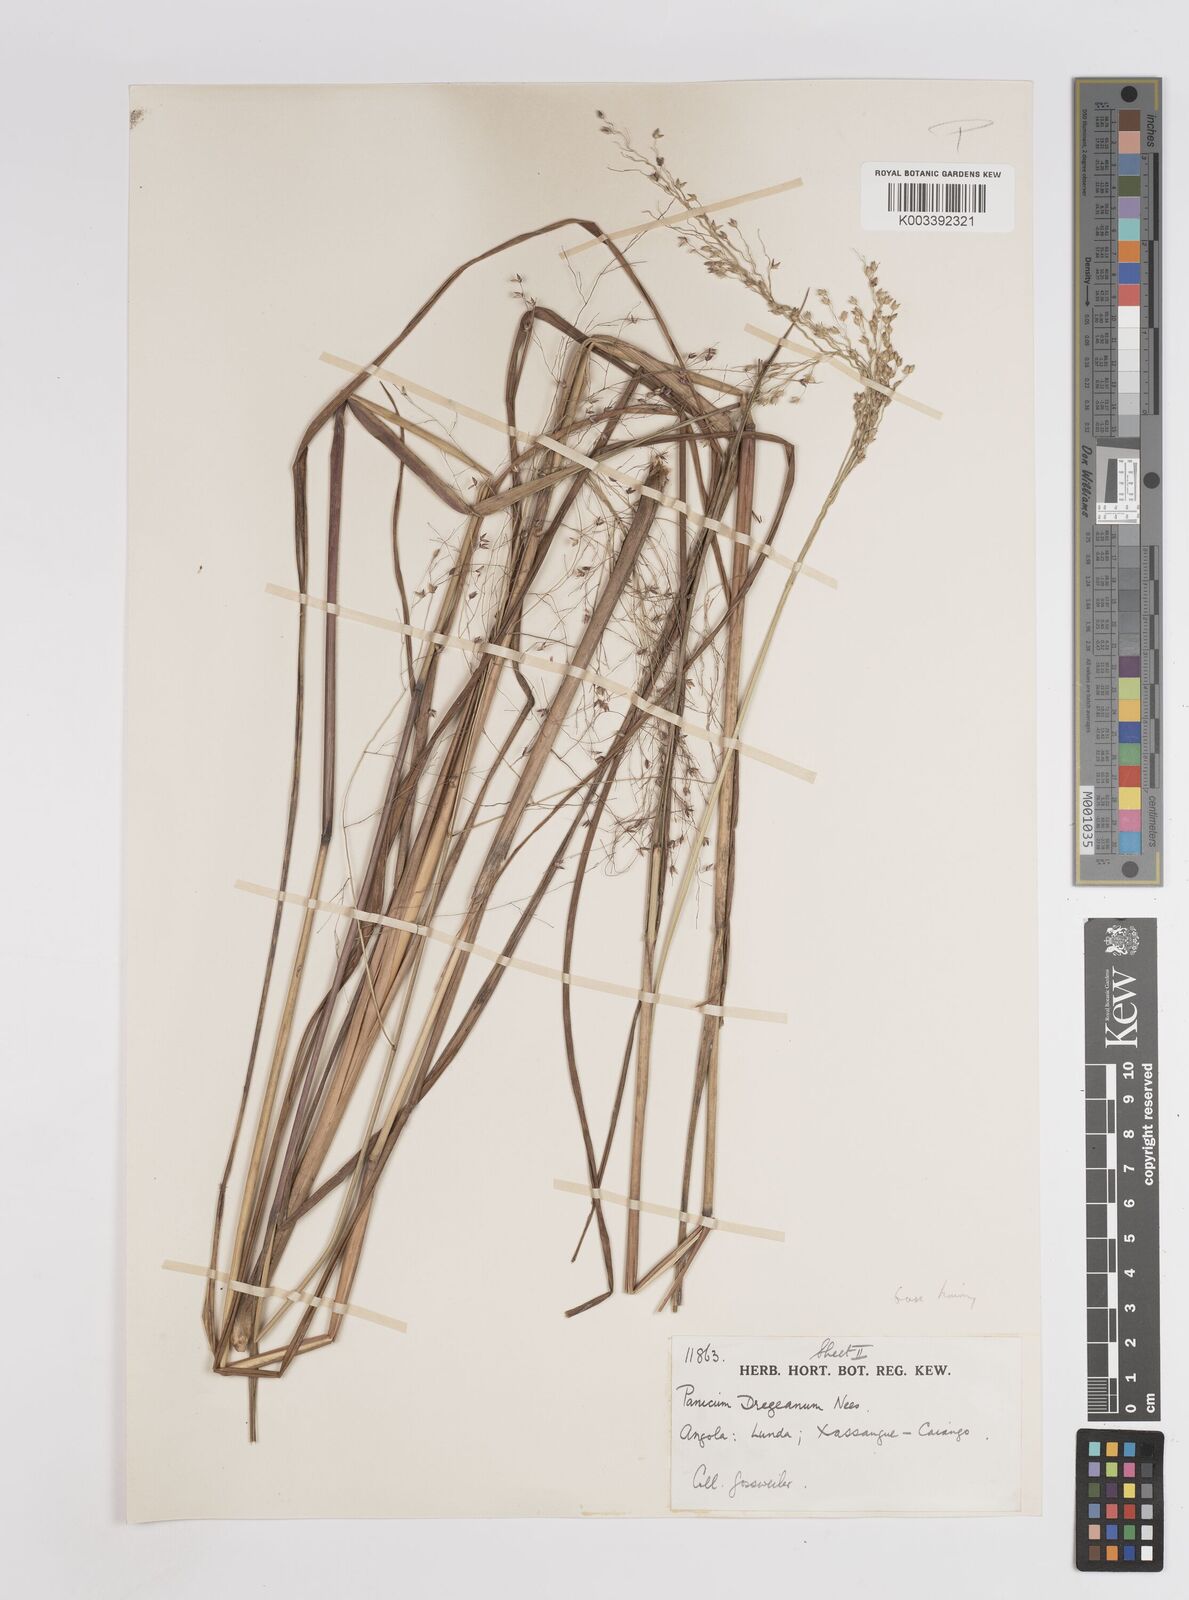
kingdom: Plantae
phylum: Tracheophyta
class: Liliopsida
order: Poales
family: Poaceae
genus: Panicum
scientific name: Panicum fluviicola
